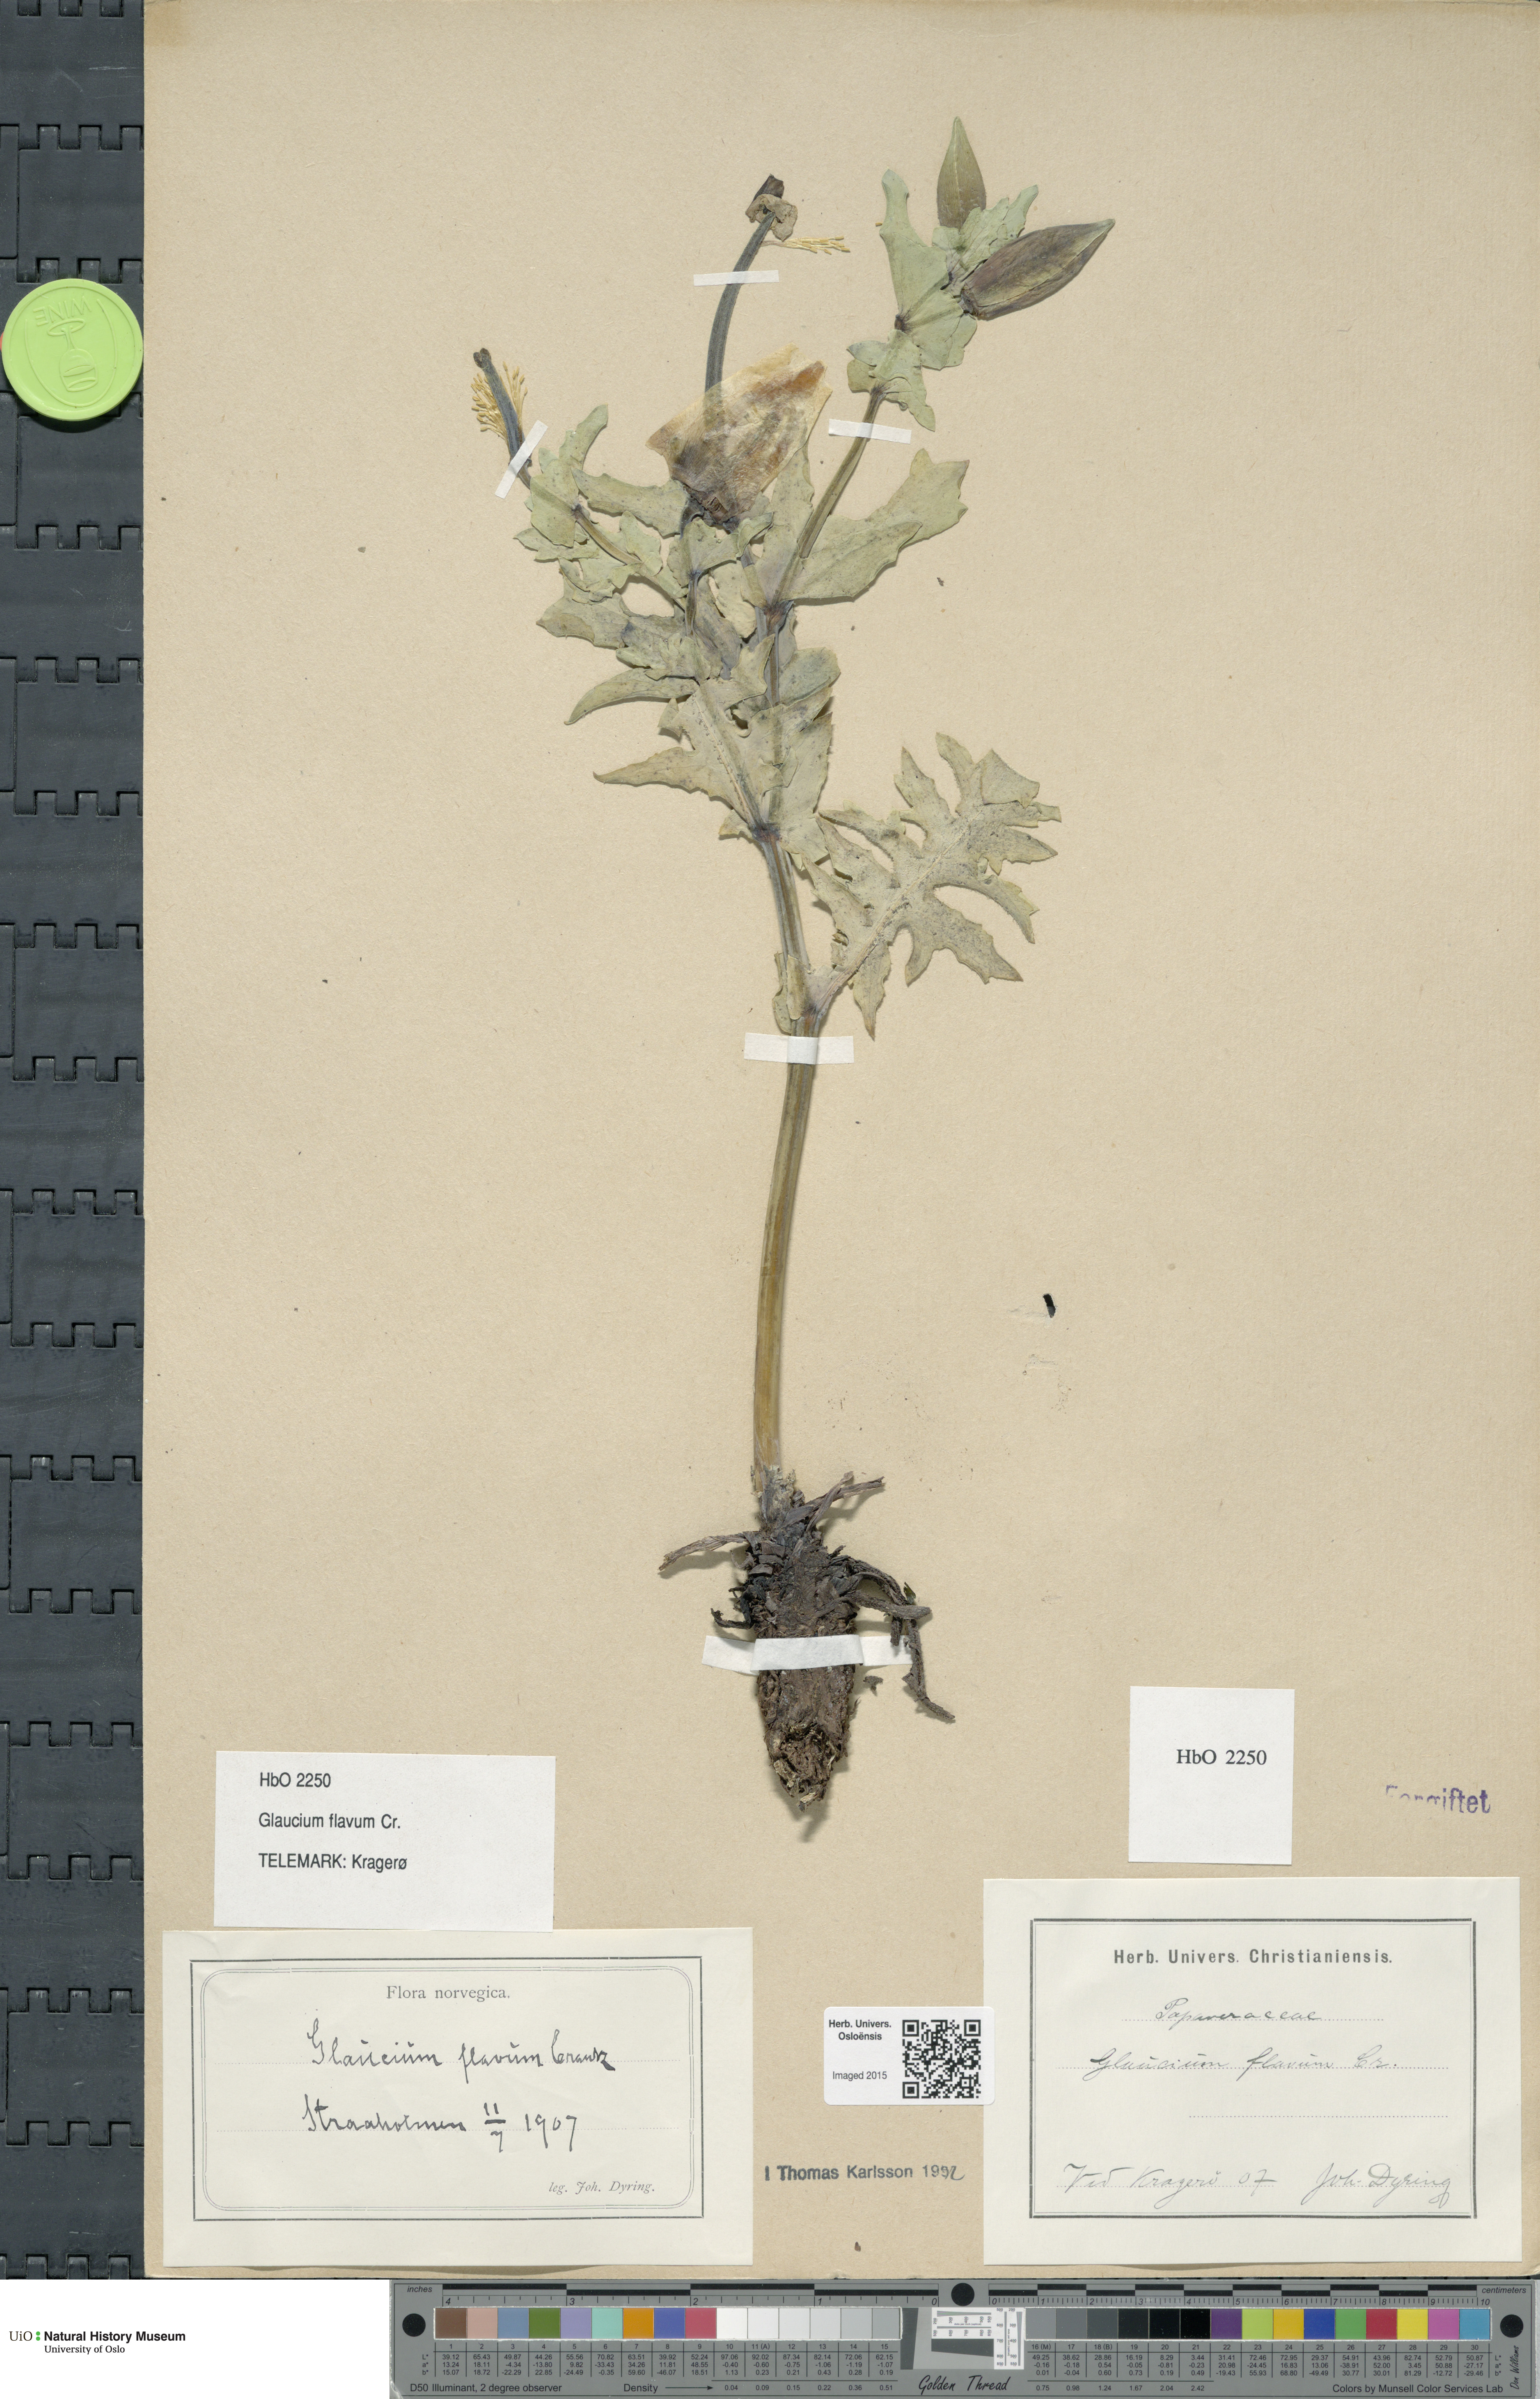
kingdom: Plantae
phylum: Tracheophyta
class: Magnoliopsida
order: Ranunculales
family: Papaveraceae
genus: Glaucium
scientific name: Glaucium flavum
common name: Yellow horned-poppy
